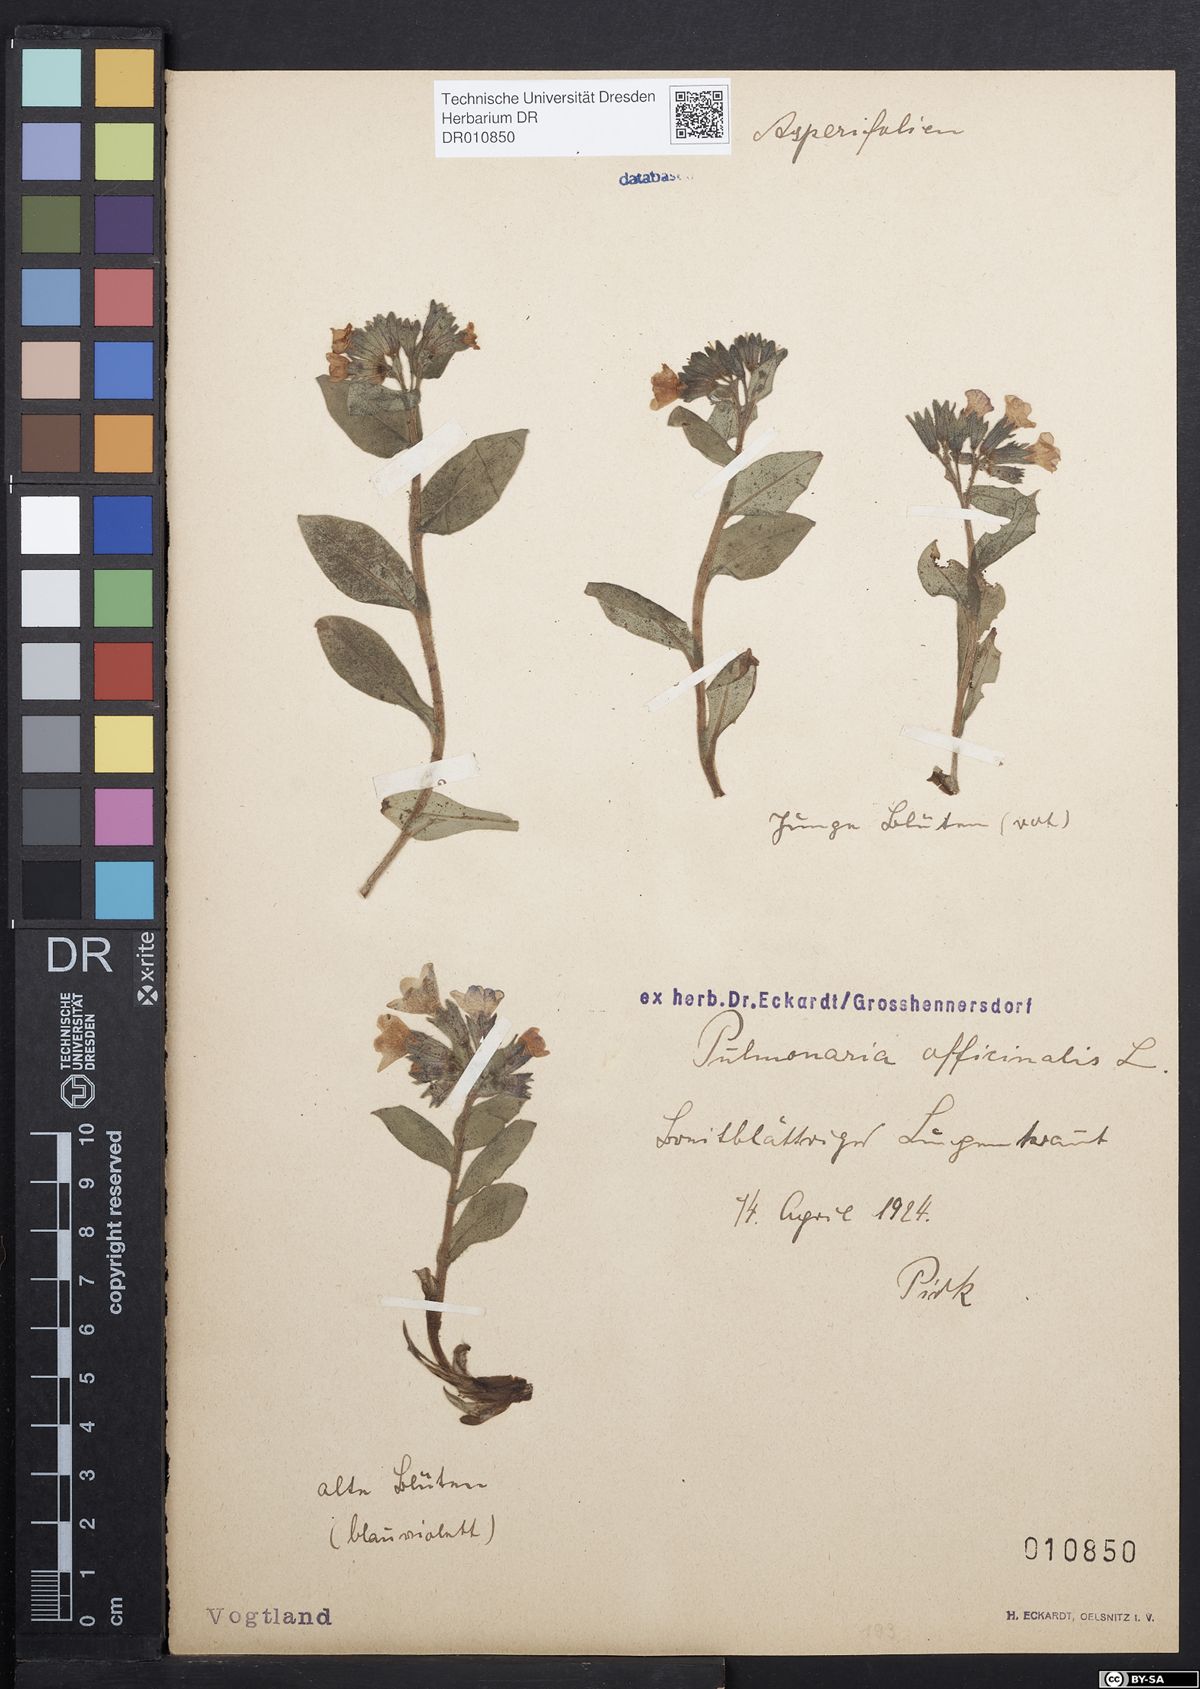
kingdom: Plantae
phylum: Tracheophyta
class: Magnoliopsida
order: Boraginales
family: Boraginaceae
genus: Pulmonaria
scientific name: Pulmonaria obscura
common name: Suffolk lungwort
